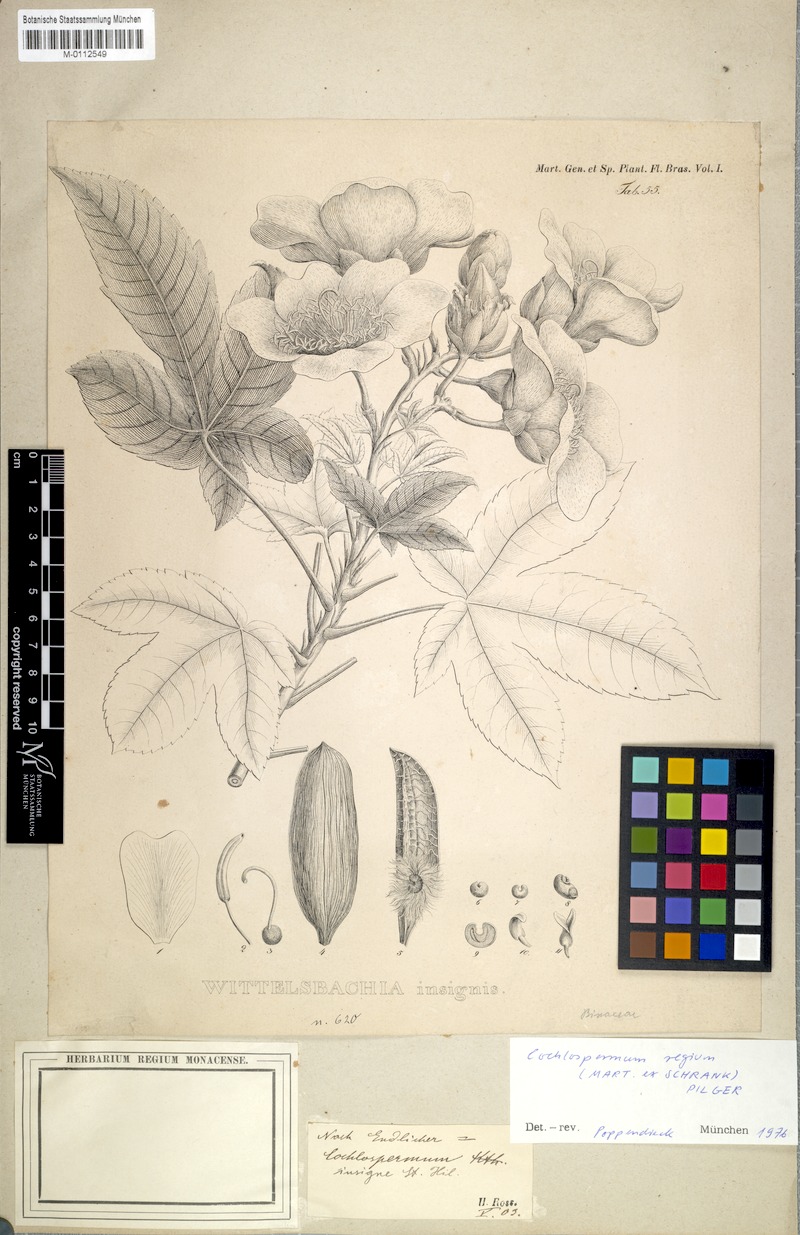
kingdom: Plantae
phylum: Tracheophyta
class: Magnoliopsida
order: Malvales
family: Cochlospermaceae
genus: Cochlospermum
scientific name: Cochlospermum regium
